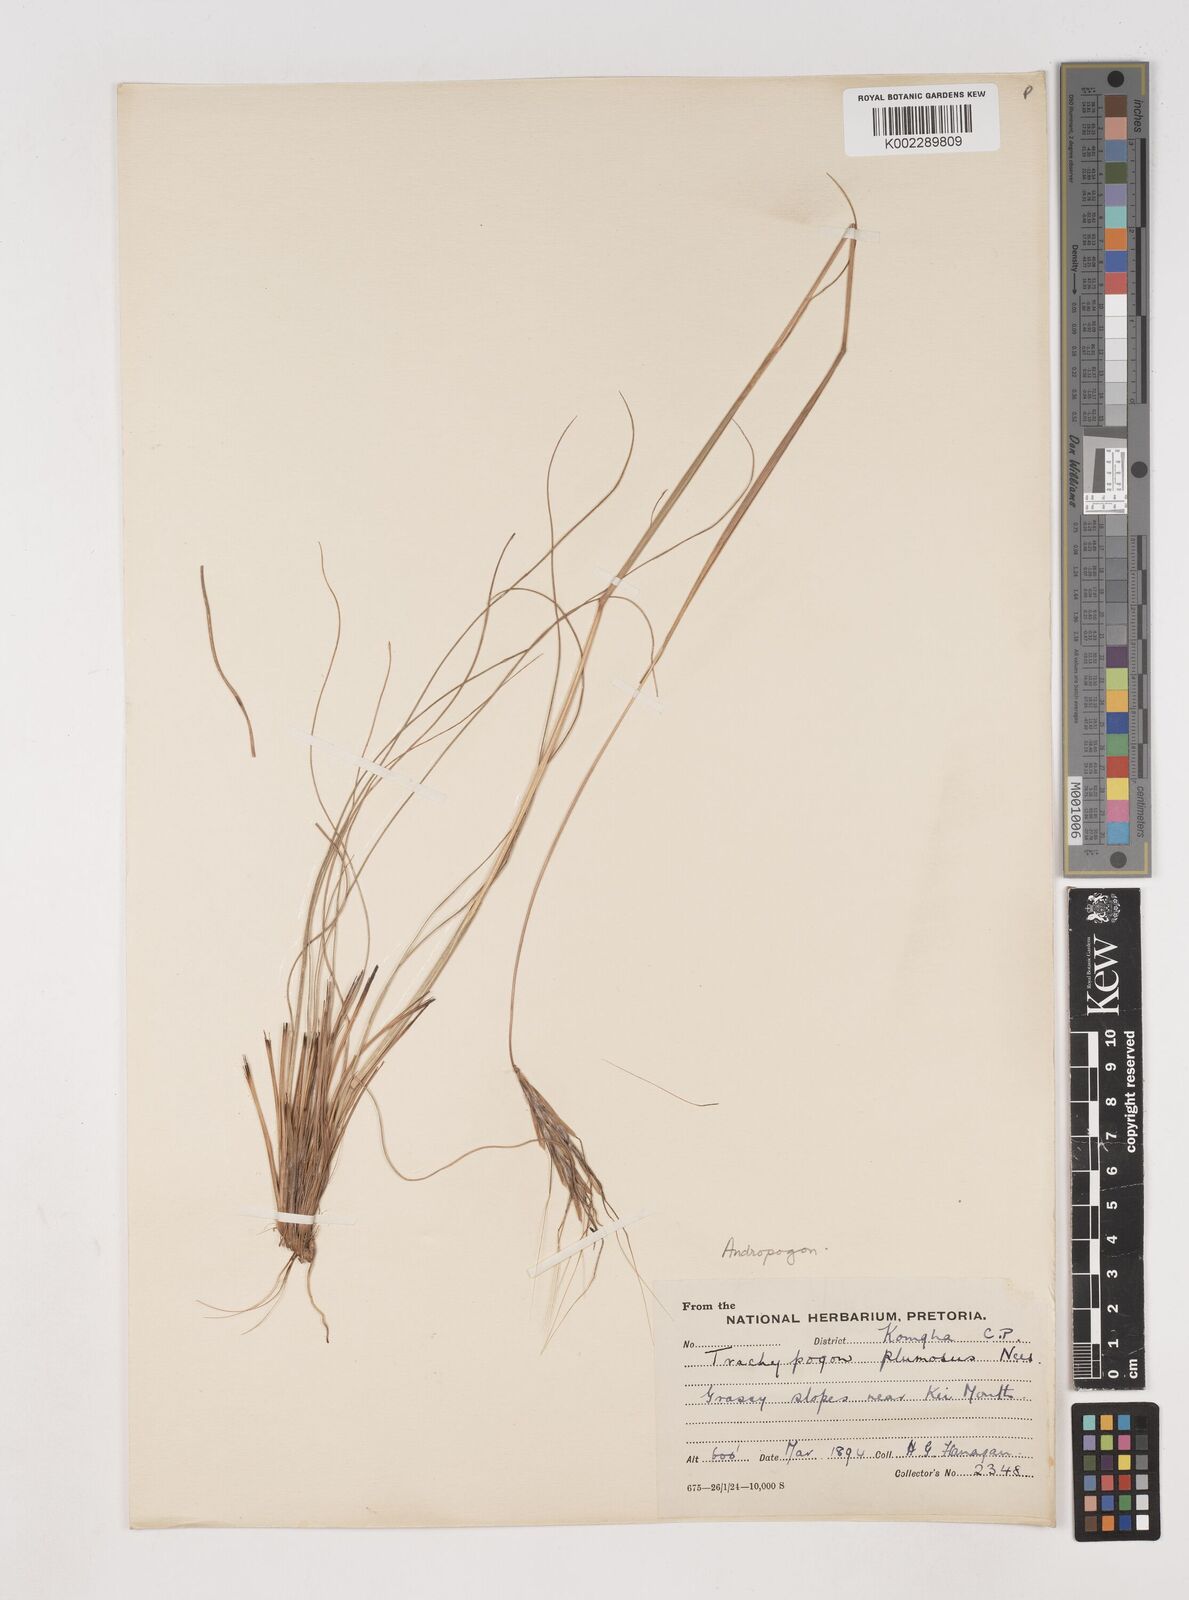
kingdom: Plantae
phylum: Tracheophyta
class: Liliopsida
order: Poales
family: Poaceae
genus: Diheteropogon
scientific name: Diheteropogon filifolius
